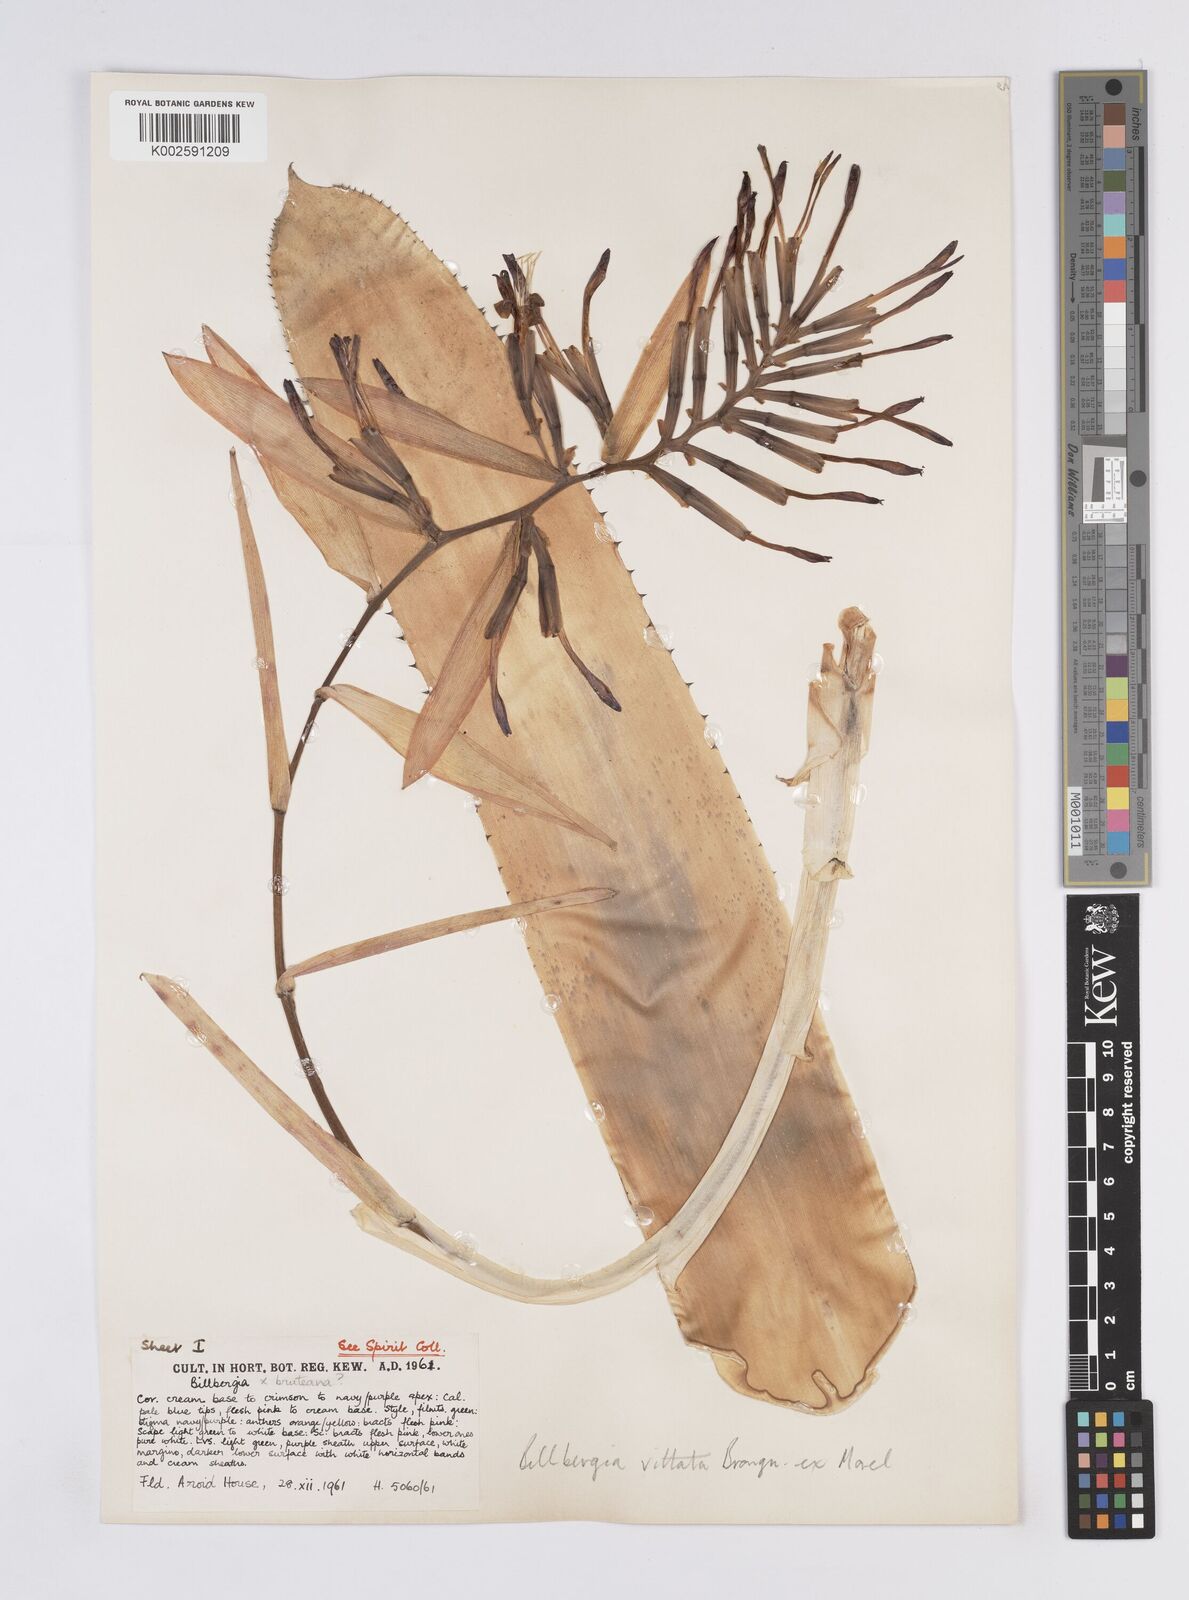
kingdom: Plantae
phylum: Tracheophyta
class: Liliopsida
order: Poales
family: Bromeliaceae
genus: Billbergia
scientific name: Billbergia vittata
